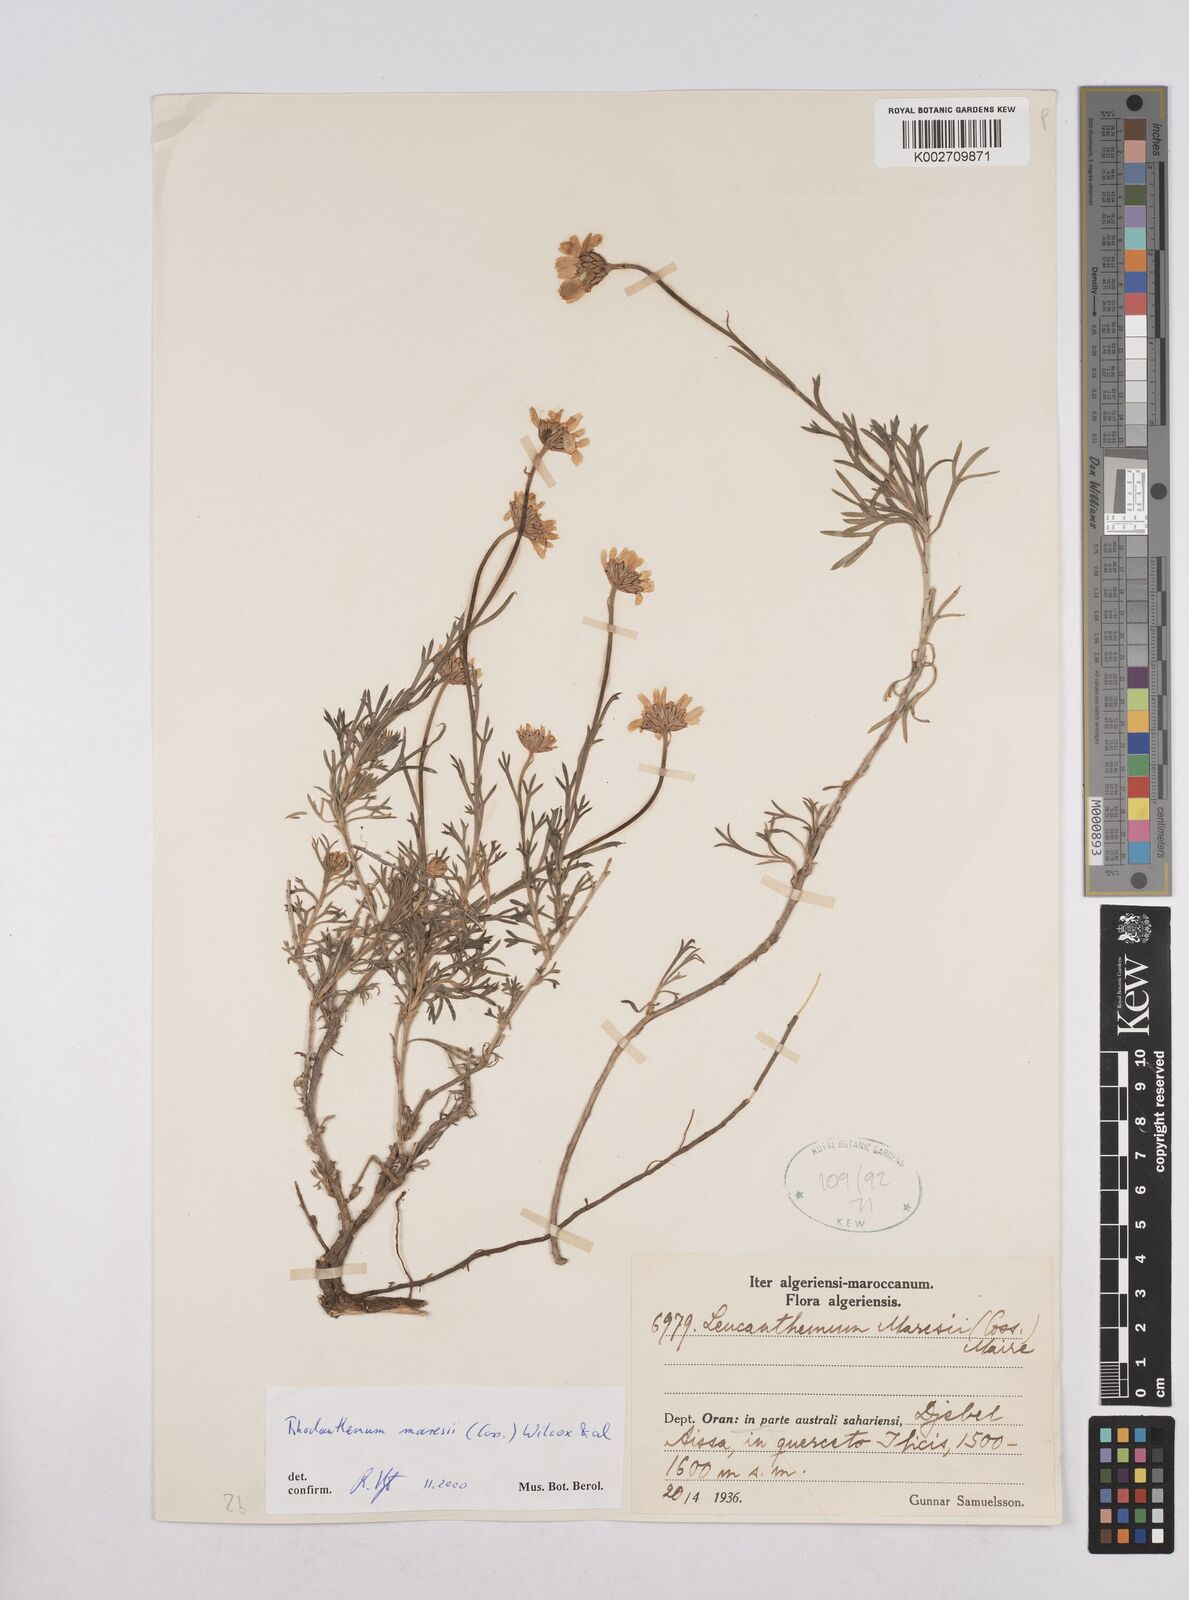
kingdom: Plantae
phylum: Tracheophyta
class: Magnoliopsida
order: Asterales
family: Asteraceae
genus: Rhodanthemum
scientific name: Rhodanthemum maresii
